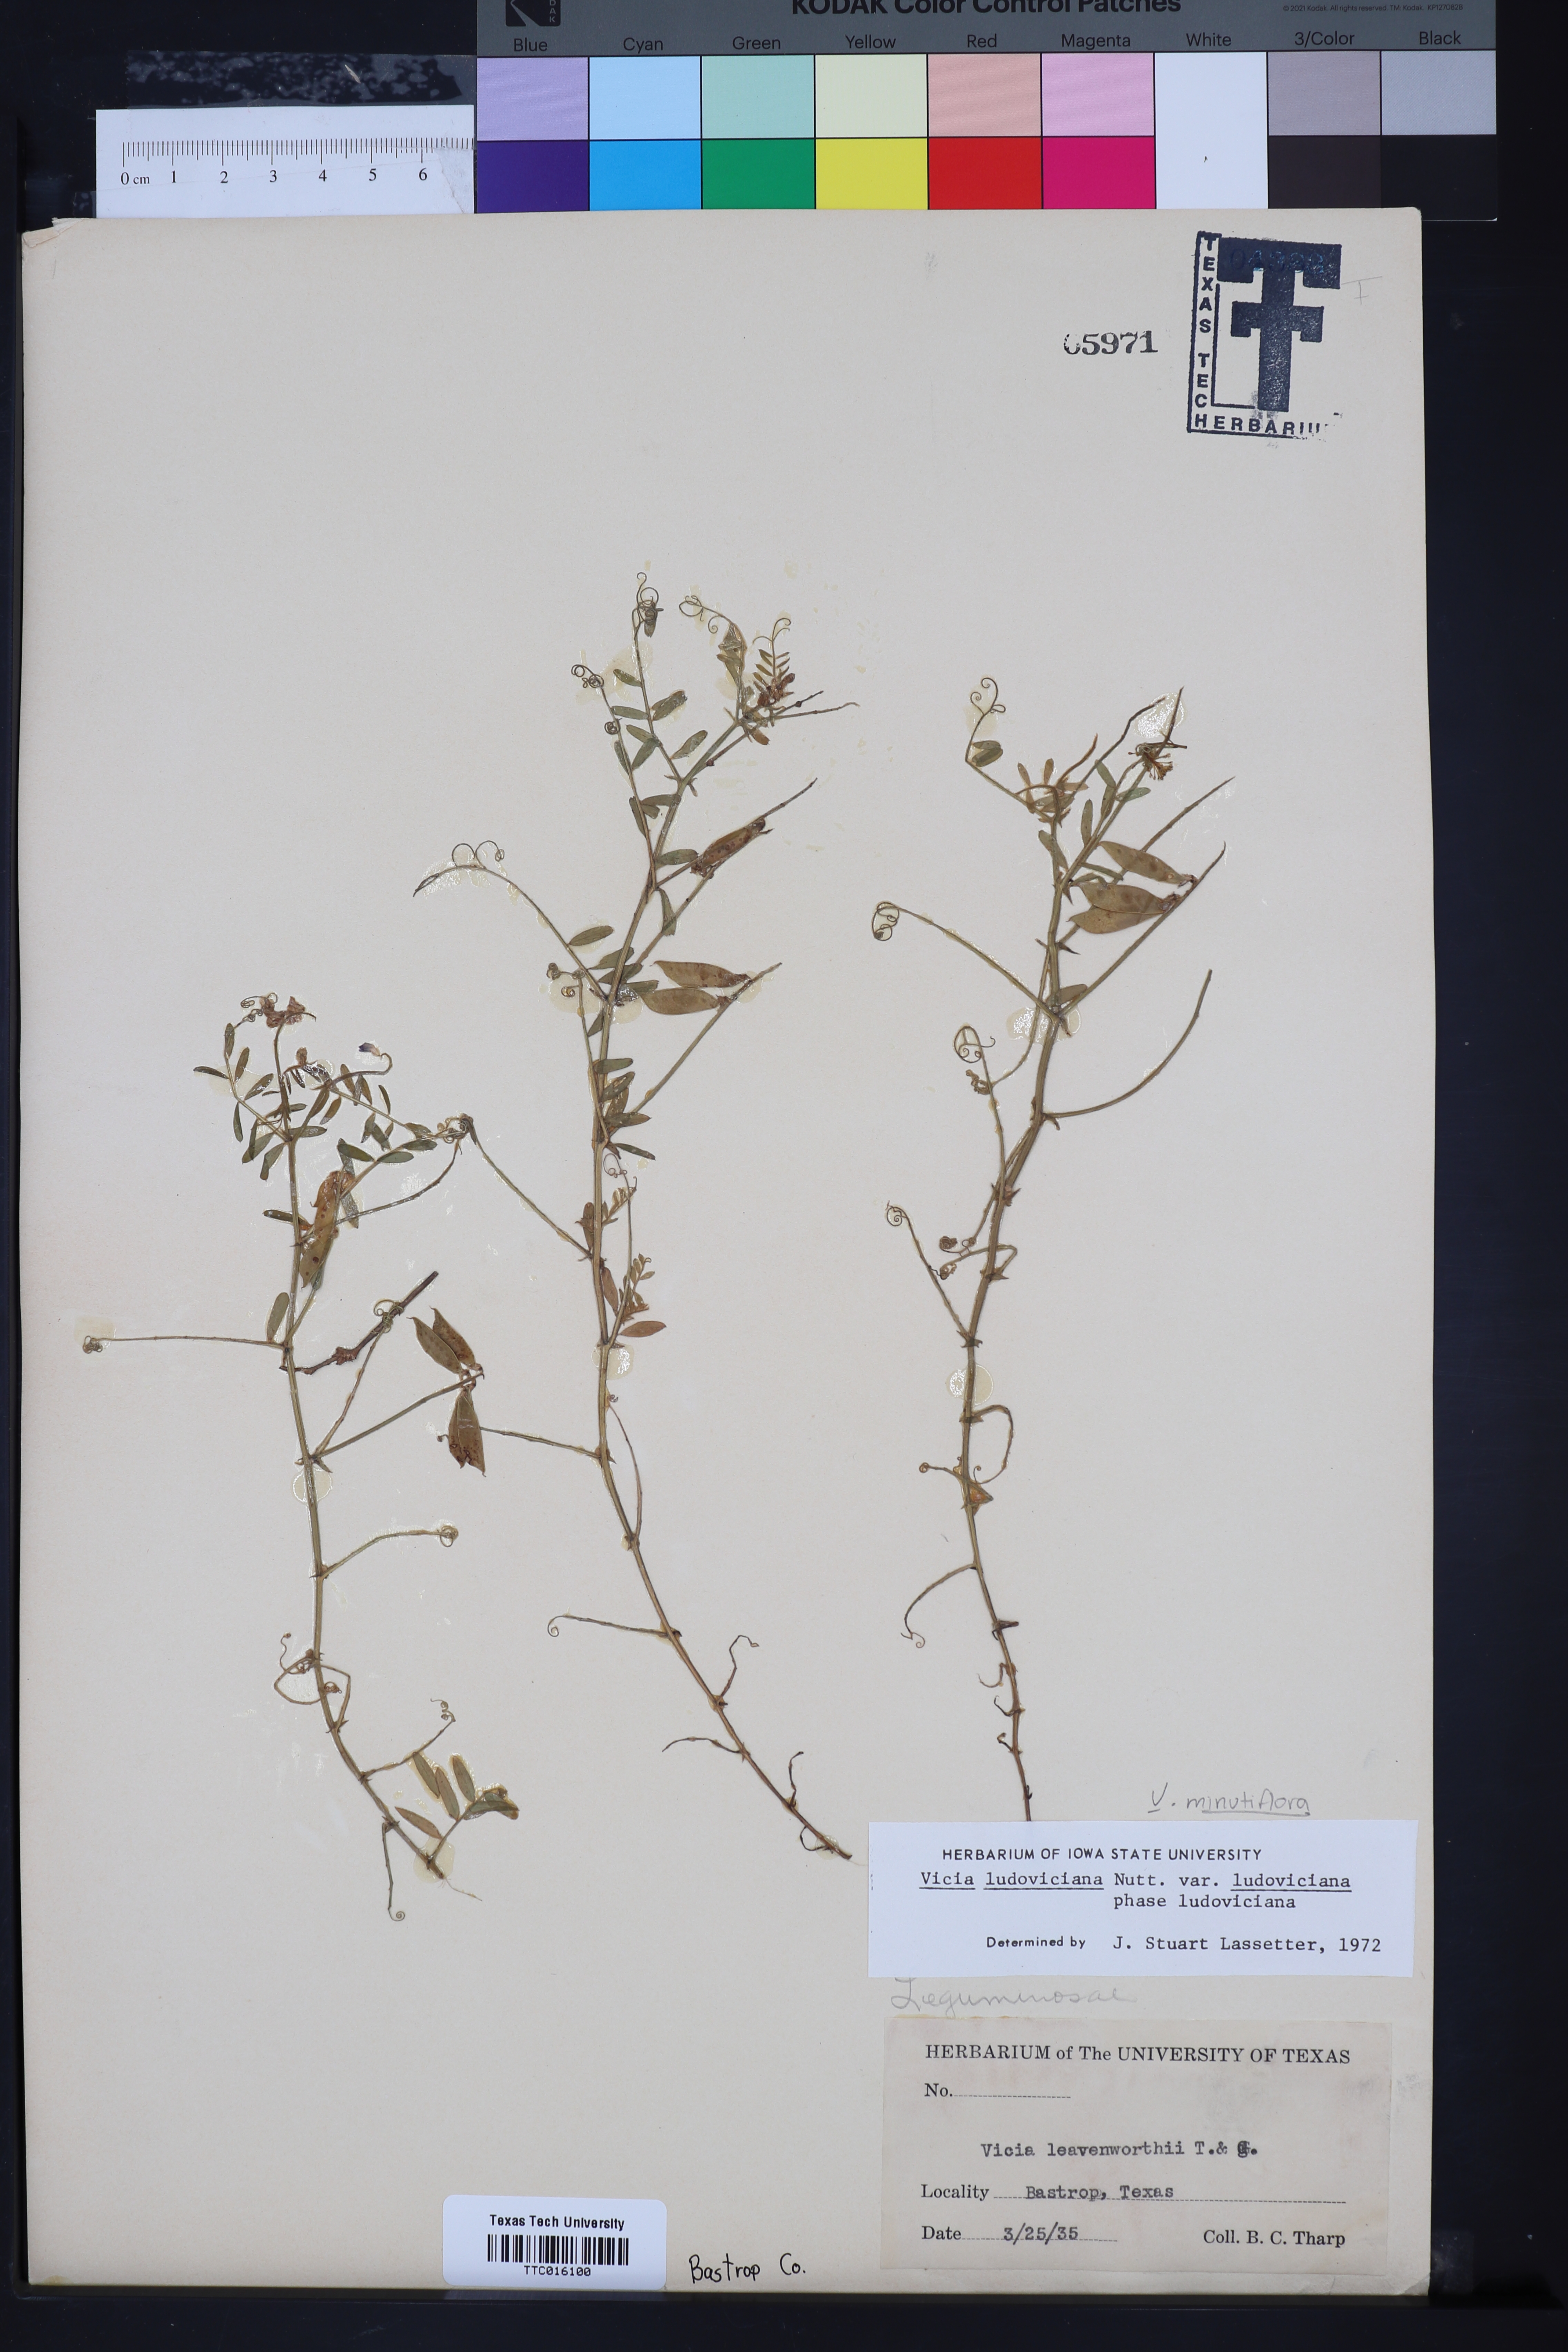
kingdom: Plantae
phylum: Tracheophyta
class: Magnoliopsida
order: Fabales
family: Fabaceae
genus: Vicia
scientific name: Vicia ludoviciana
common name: Louisiana vetch
